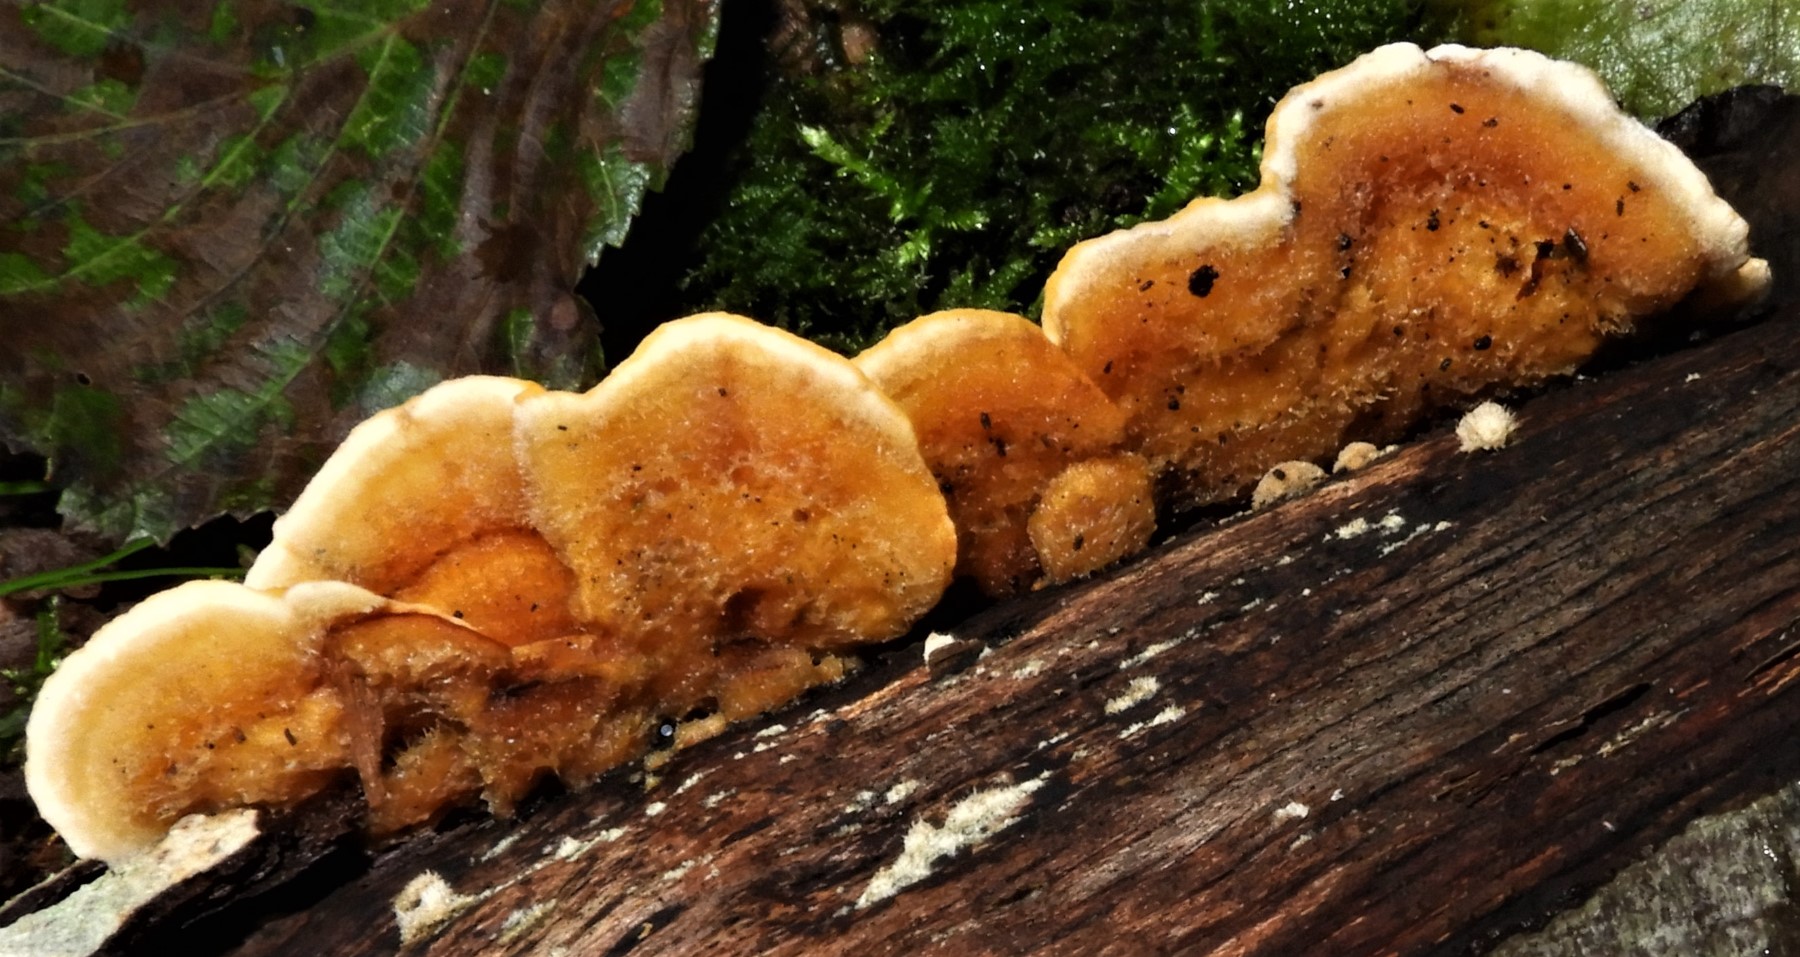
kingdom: Fungi
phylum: Basidiomycota
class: Agaricomycetes
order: Russulales
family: Stereaceae
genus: Stereum
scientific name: Stereum
